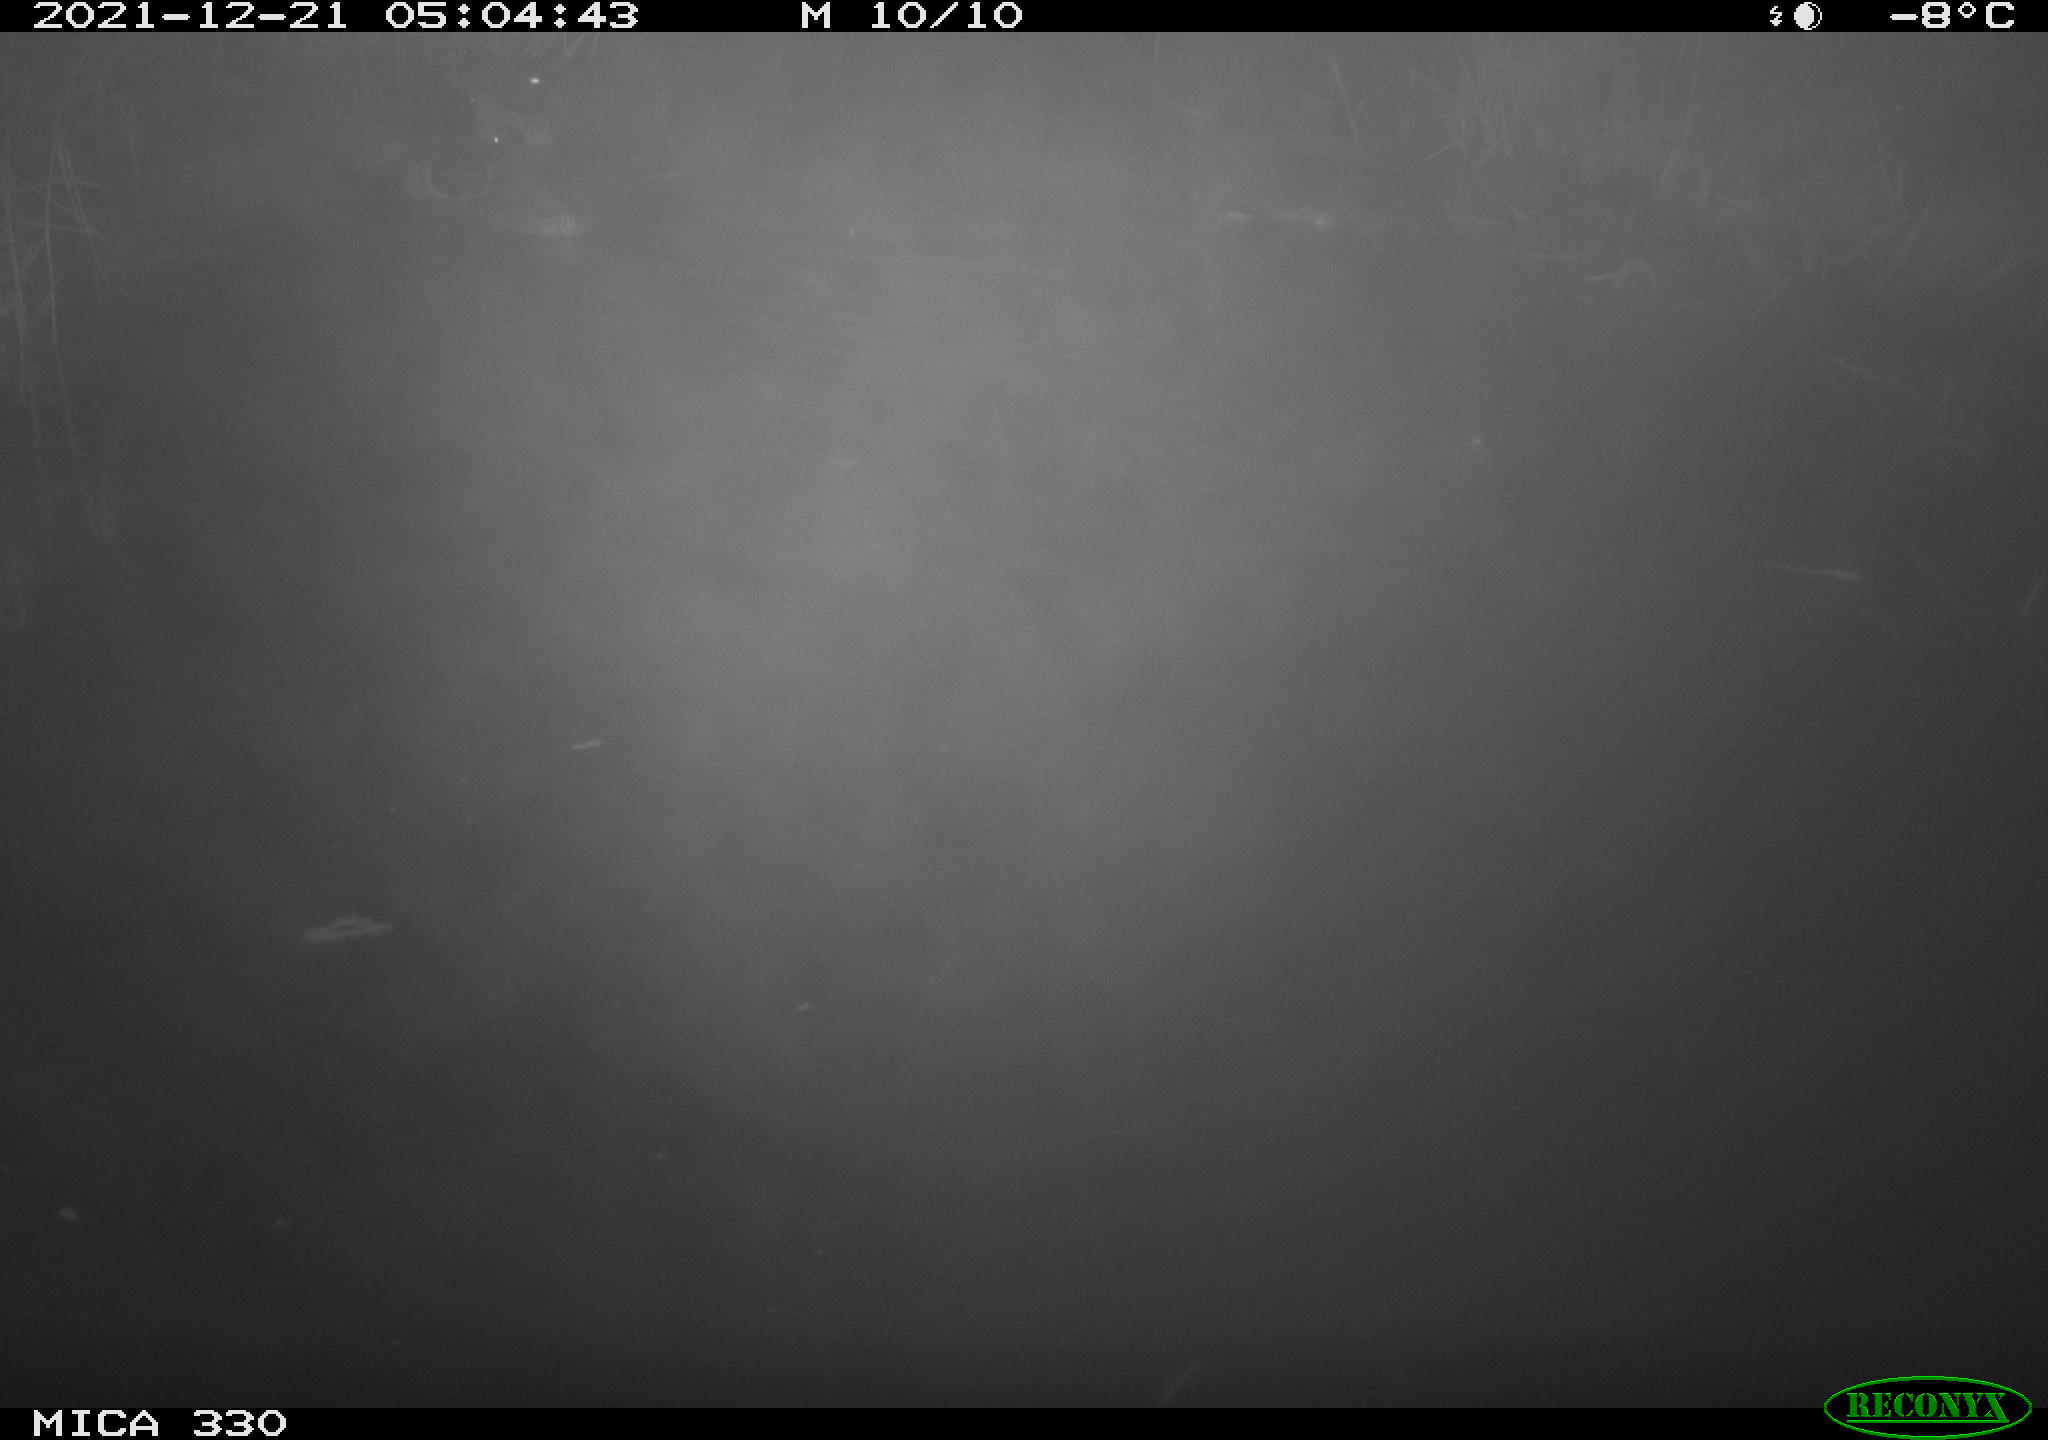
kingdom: Animalia
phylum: Chordata
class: Aves
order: Anseriformes
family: Anatidae
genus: Anas
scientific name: Anas platyrhynchos
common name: Mallard
